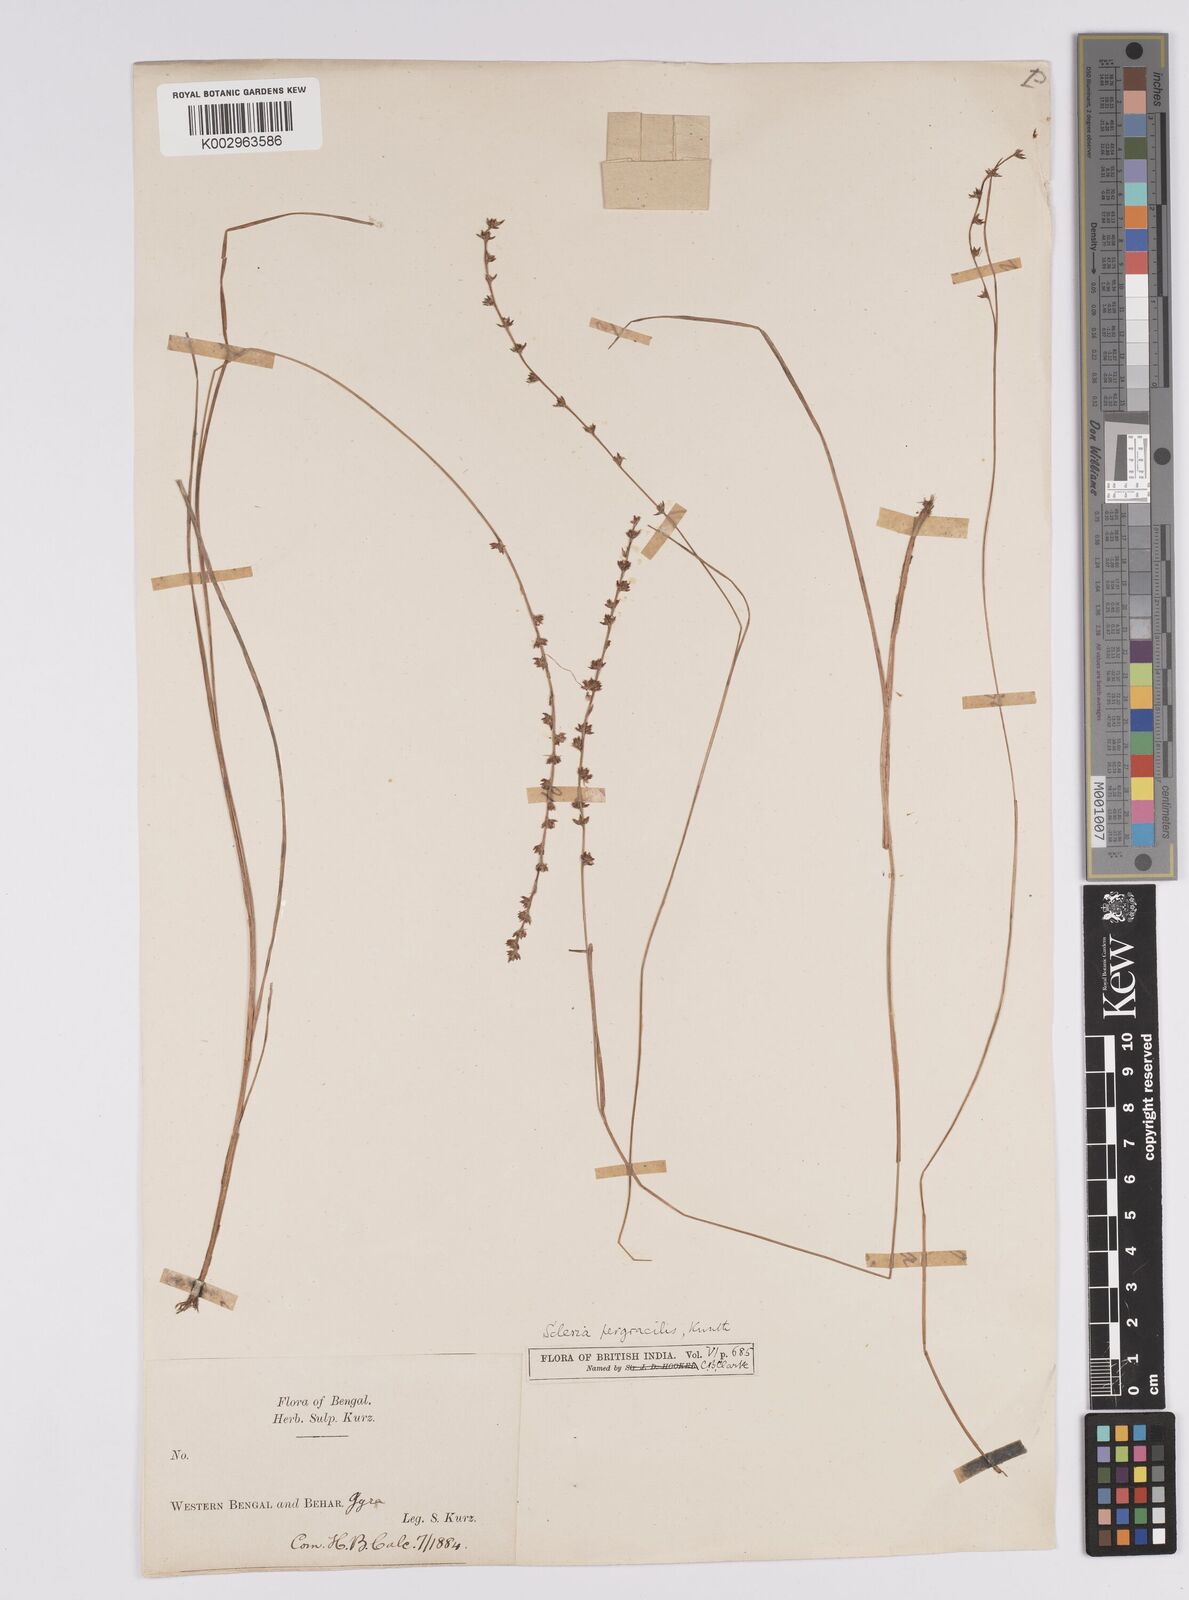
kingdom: Plantae
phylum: Tracheophyta
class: Liliopsida
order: Poales
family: Cyperaceae
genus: Scleria
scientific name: Scleria pergracilis
